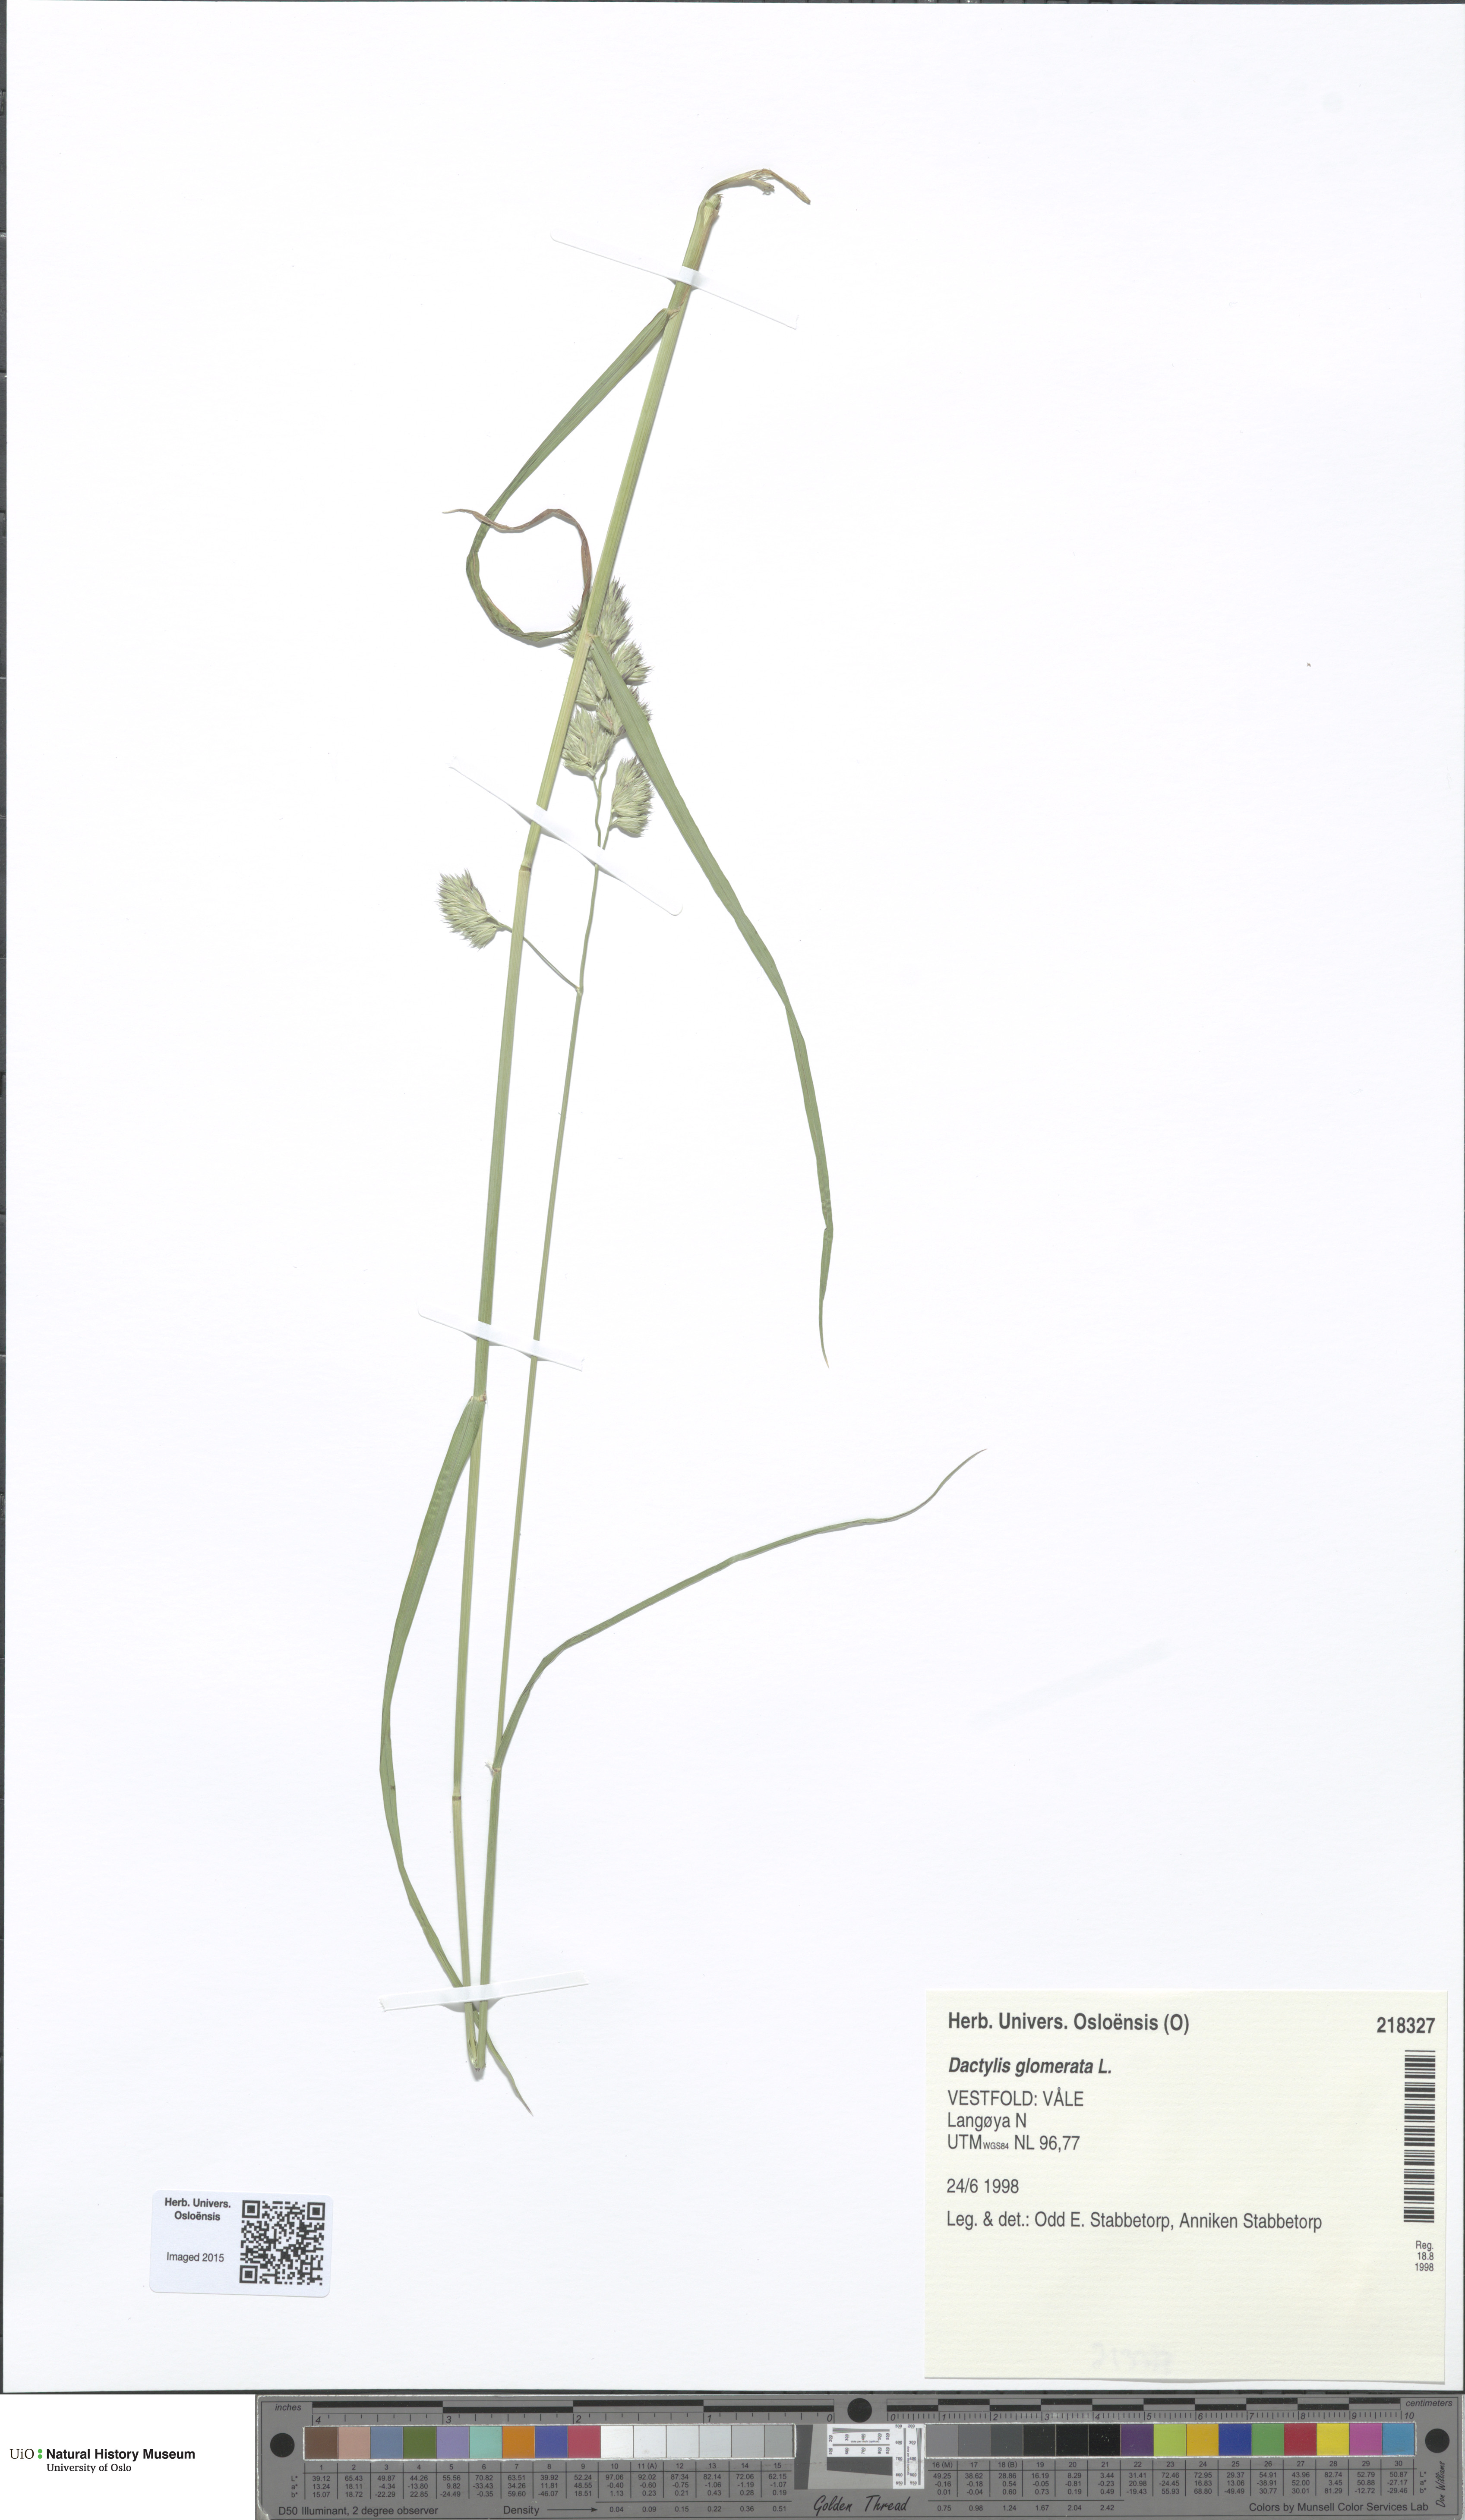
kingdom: Plantae
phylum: Tracheophyta
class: Liliopsida
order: Poales
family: Poaceae
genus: Dactylis
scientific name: Dactylis glomerata
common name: Orchardgrass
